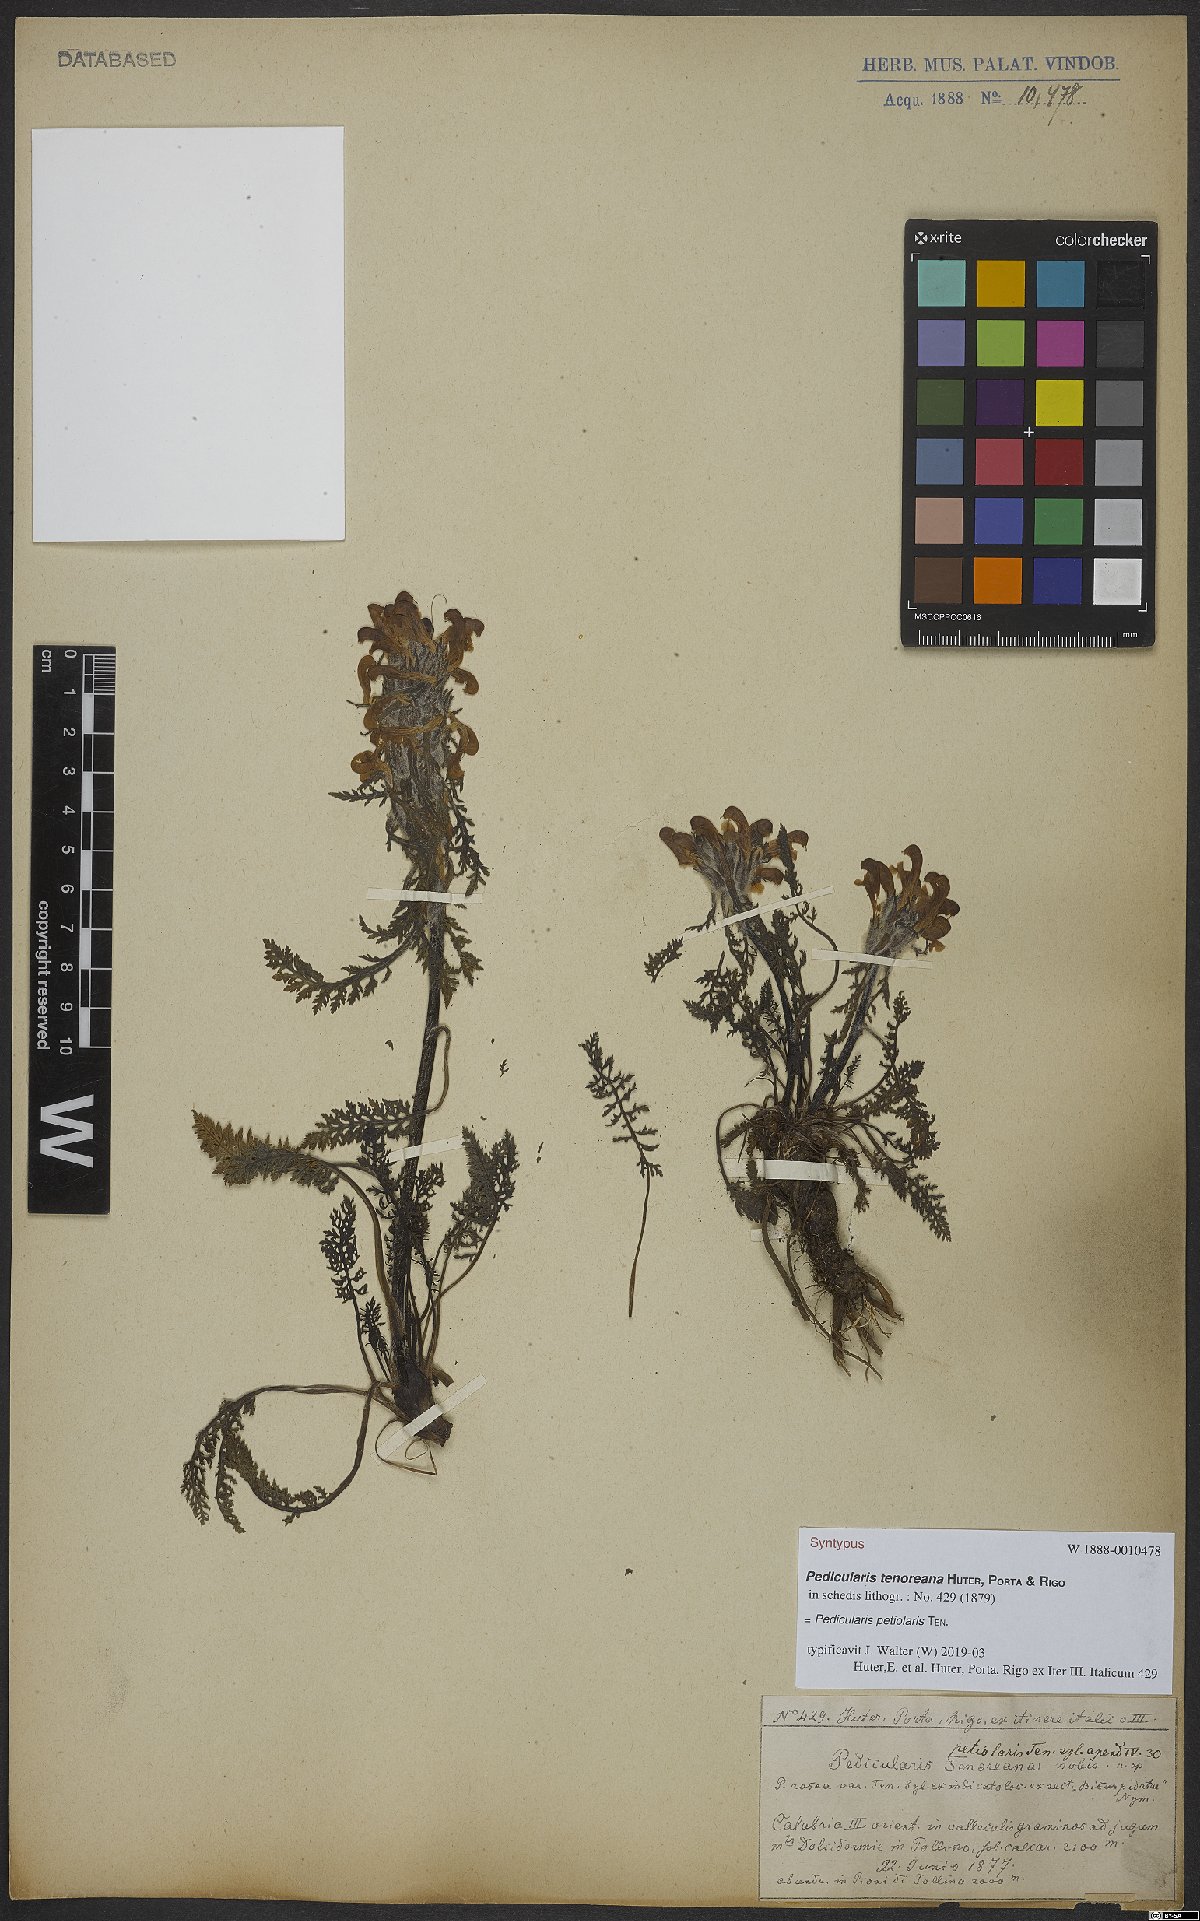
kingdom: Plantae
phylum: Tracheophyta
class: Magnoliopsida
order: Lamiales
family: Orobanchaceae
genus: Pedicularis
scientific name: Pedicularis petiolaris
